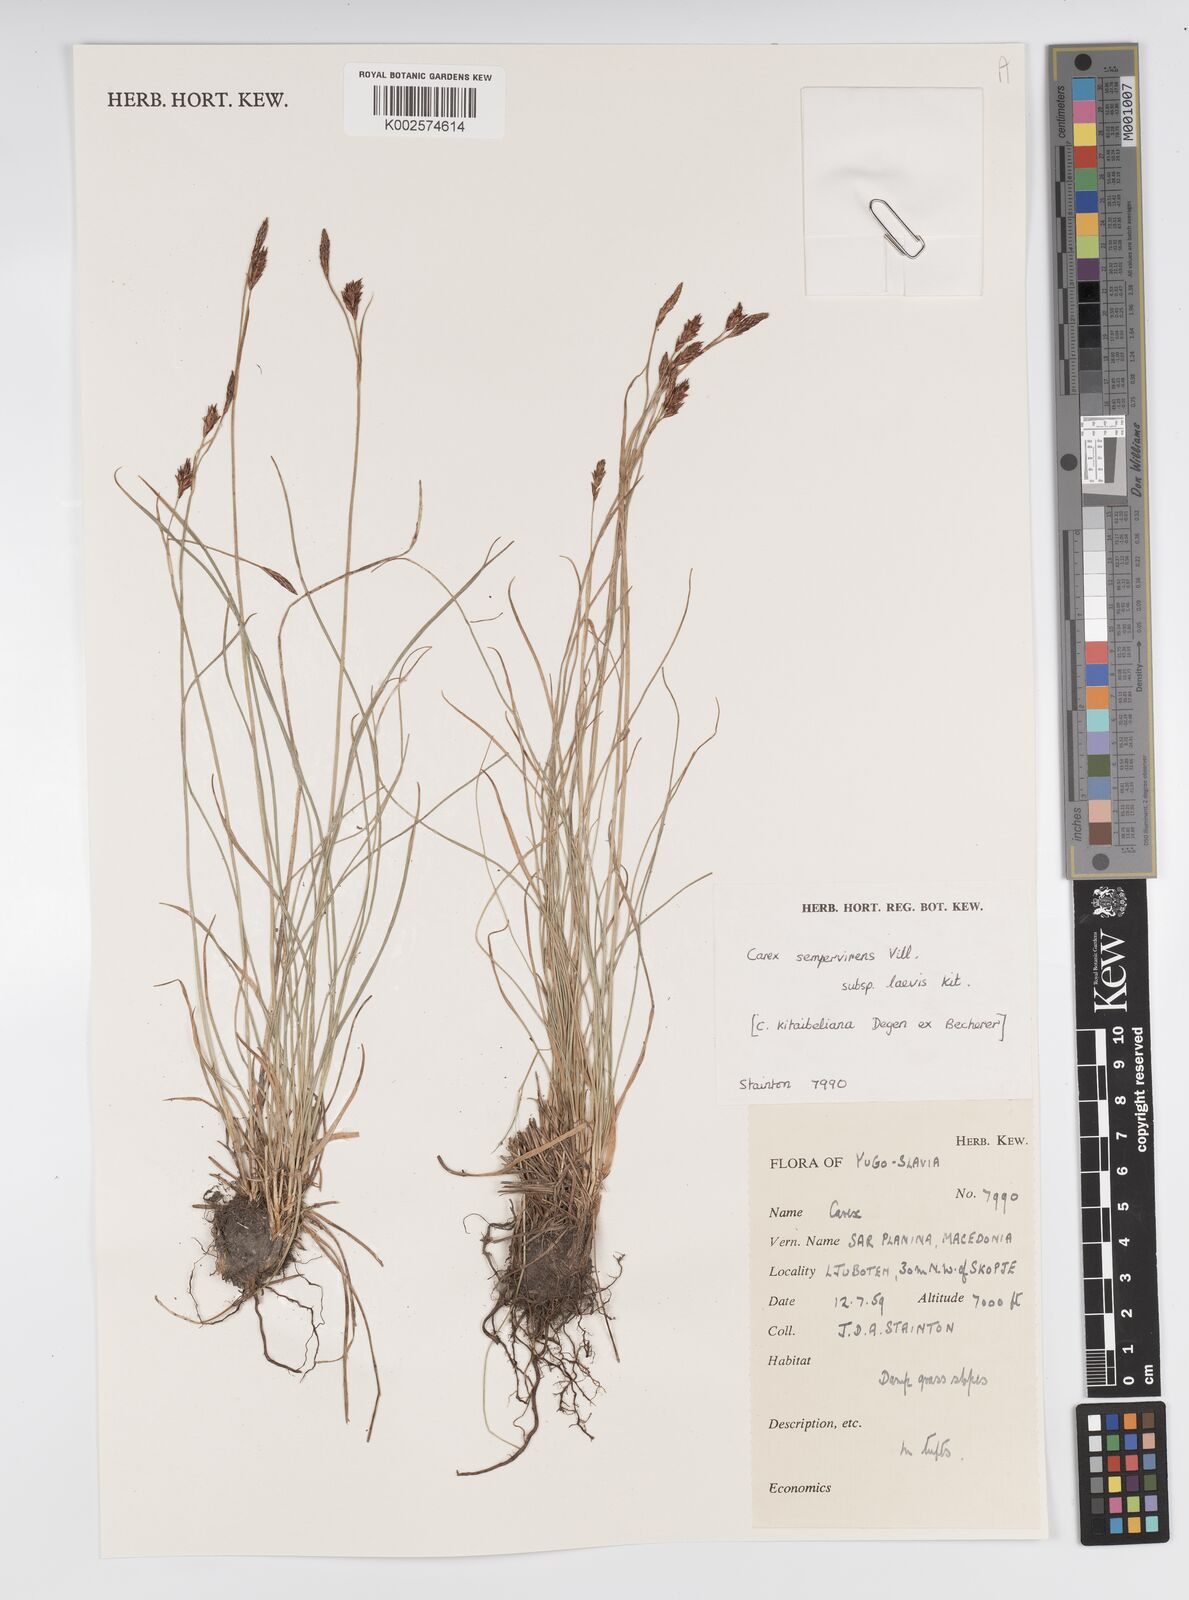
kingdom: Plantae
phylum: Tracheophyta
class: Liliopsida
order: Poales
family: Cyperaceae
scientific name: Cyperaceae
